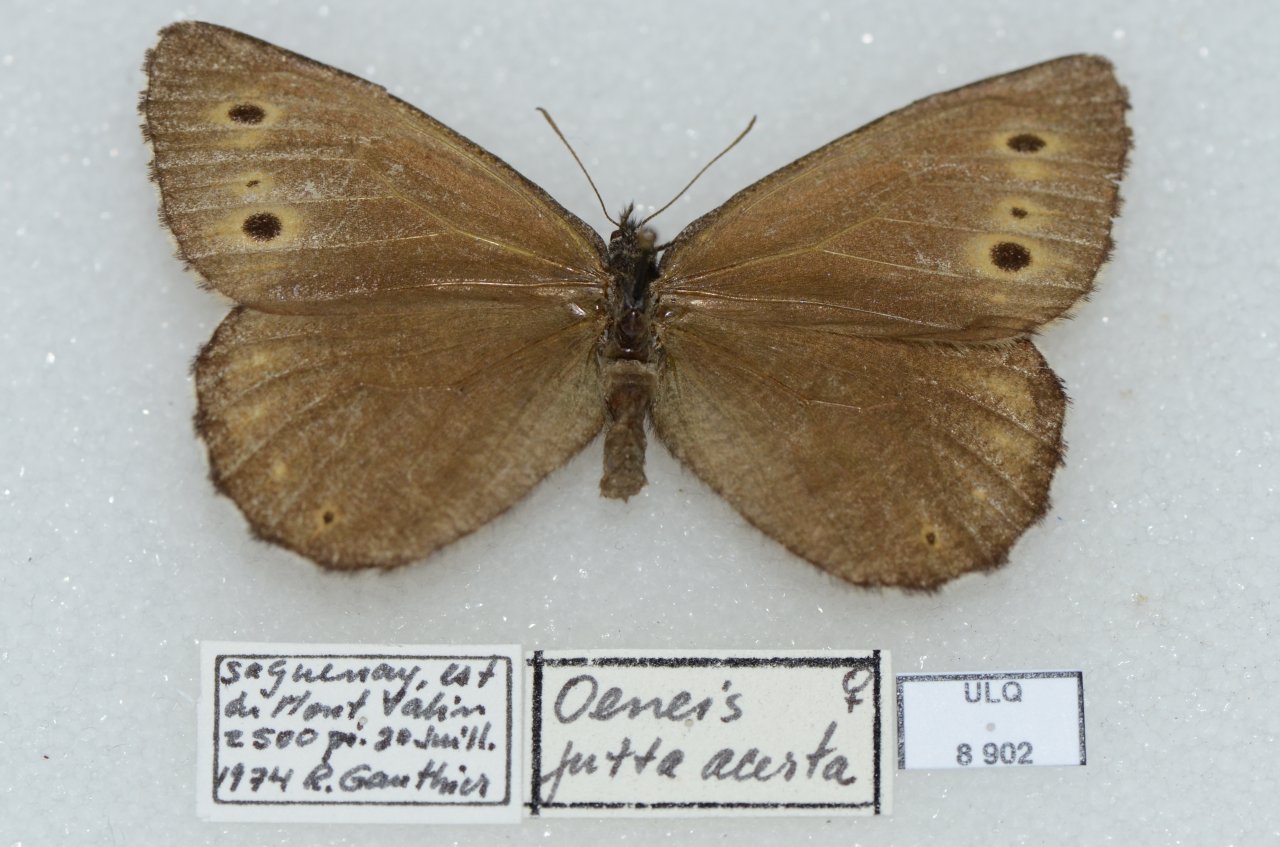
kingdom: Animalia
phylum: Arthropoda
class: Insecta
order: Lepidoptera
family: Nymphalidae
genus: Oeneis
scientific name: Oeneis jutta
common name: Jutta Arctic
